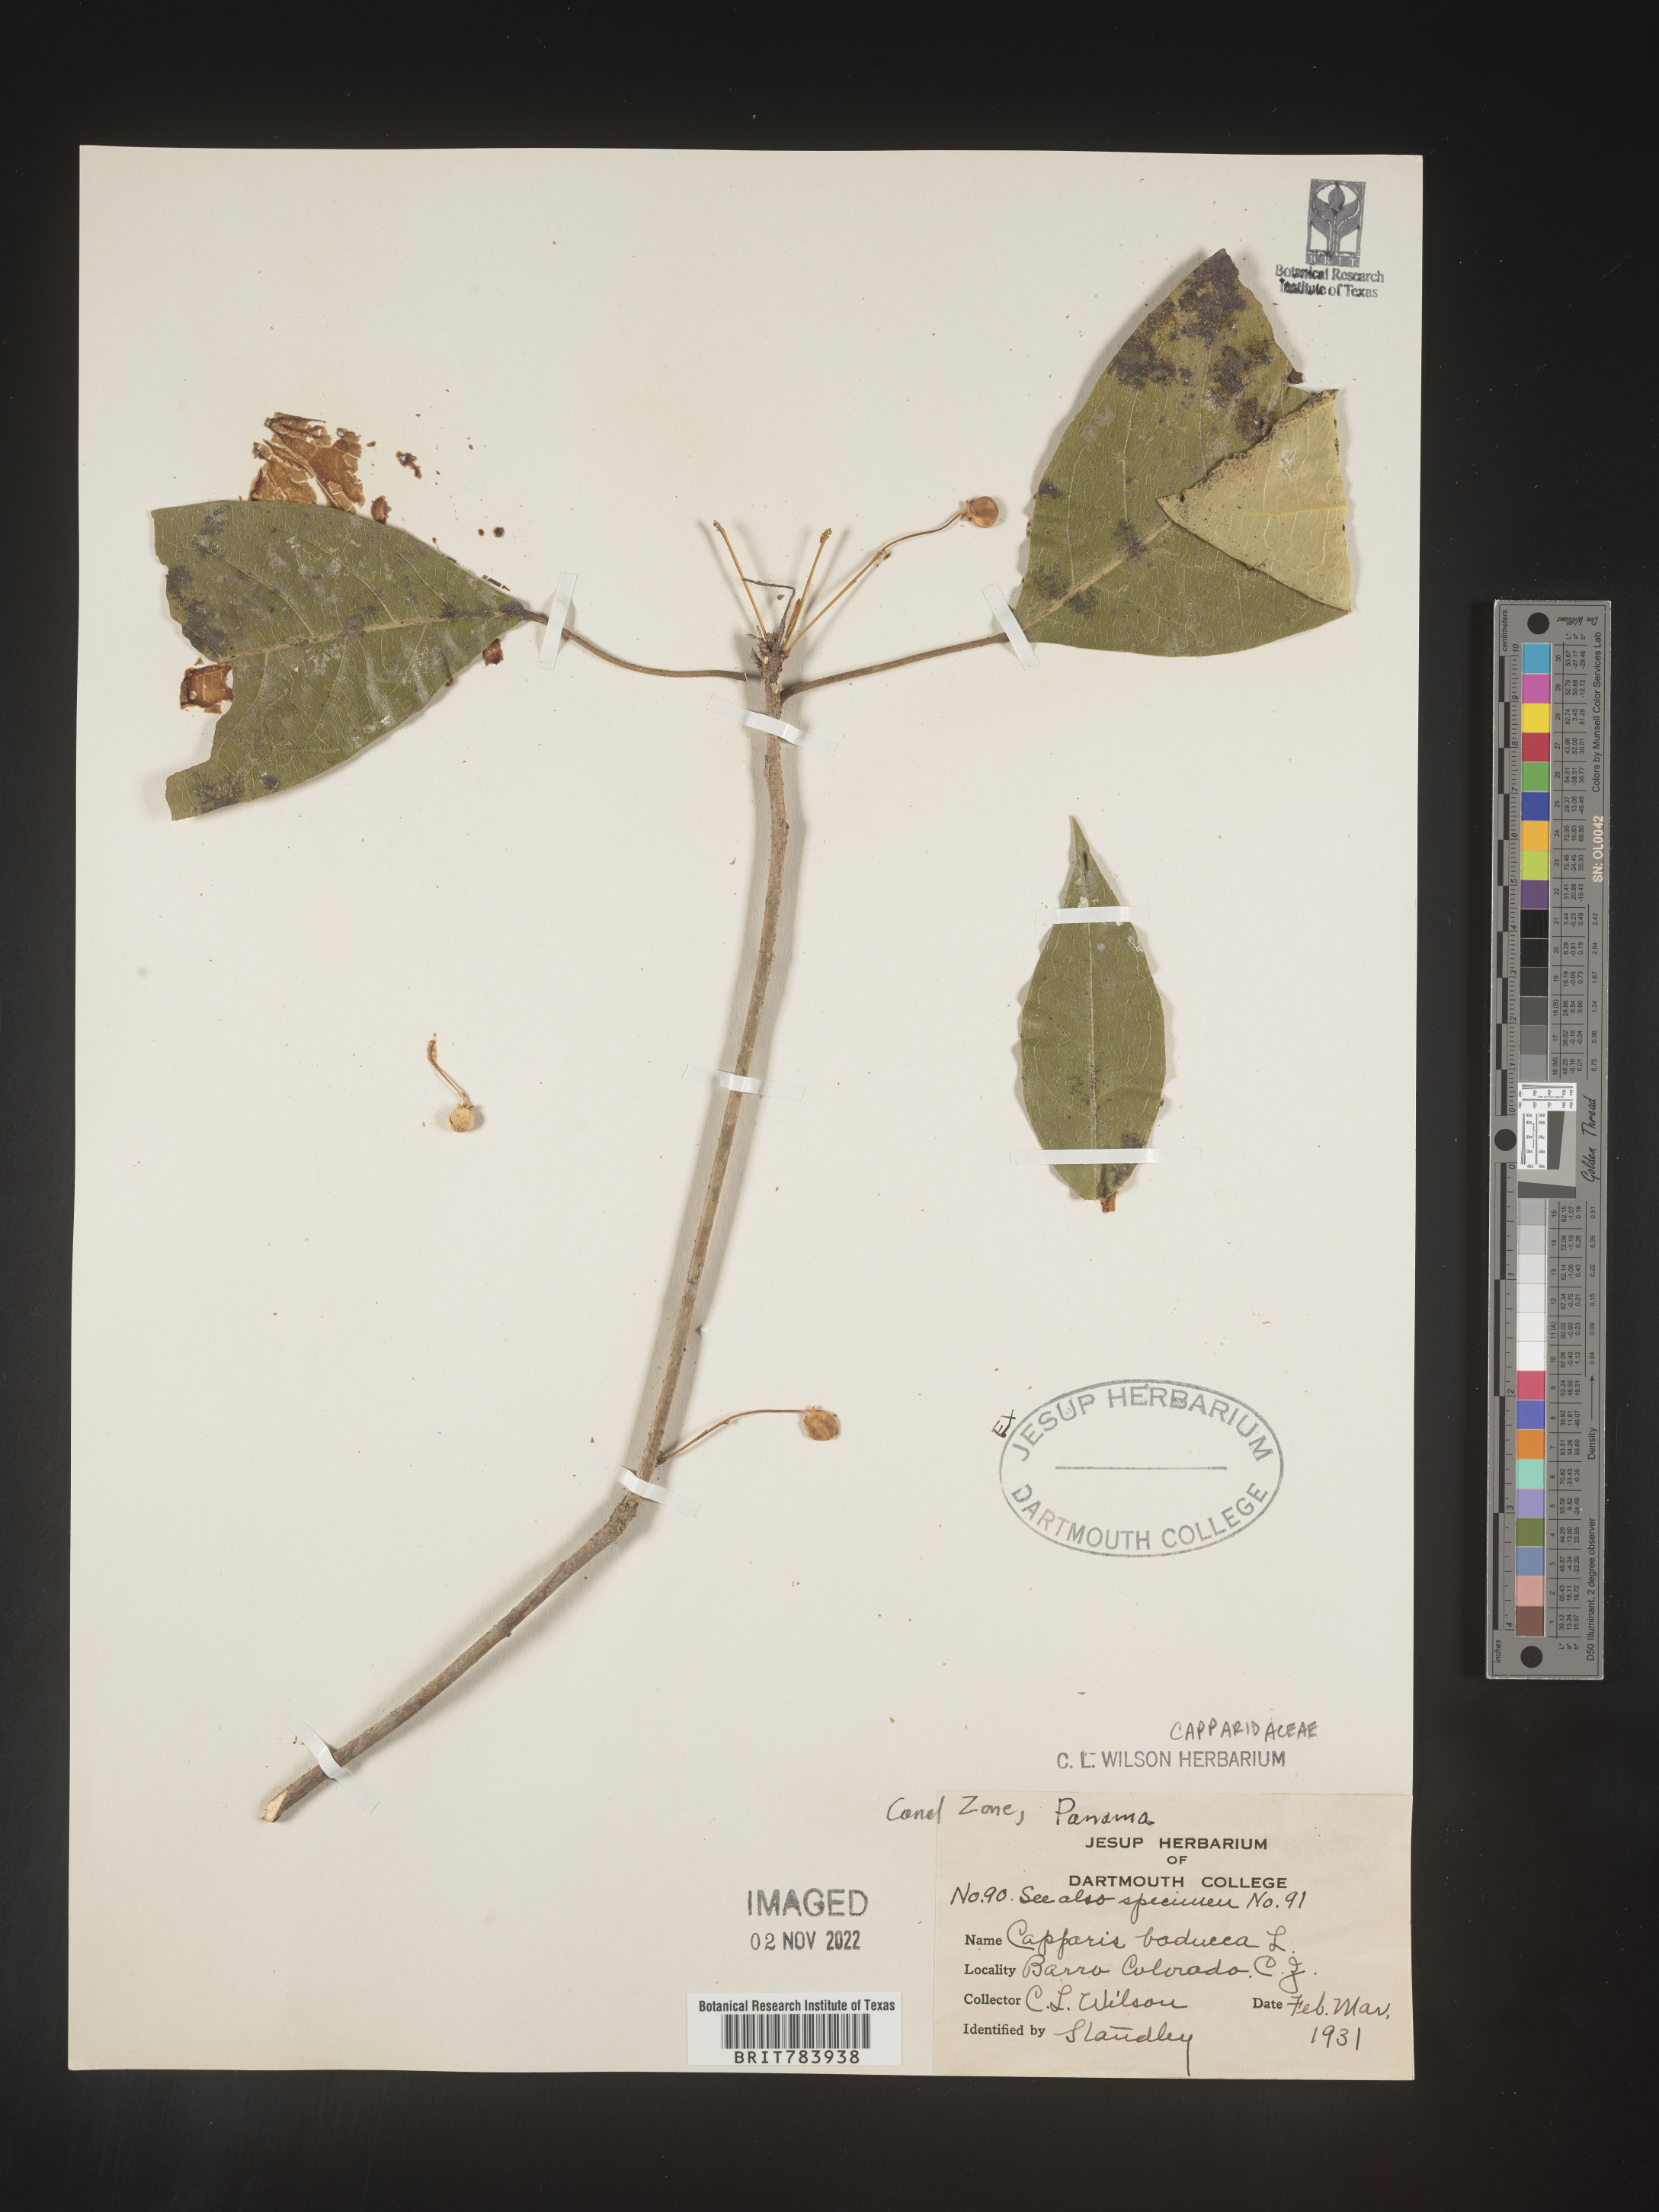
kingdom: Plantae
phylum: Tracheophyta
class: Magnoliopsida
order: Brassicales
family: Capparaceae
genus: Capparis
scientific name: Capparis
